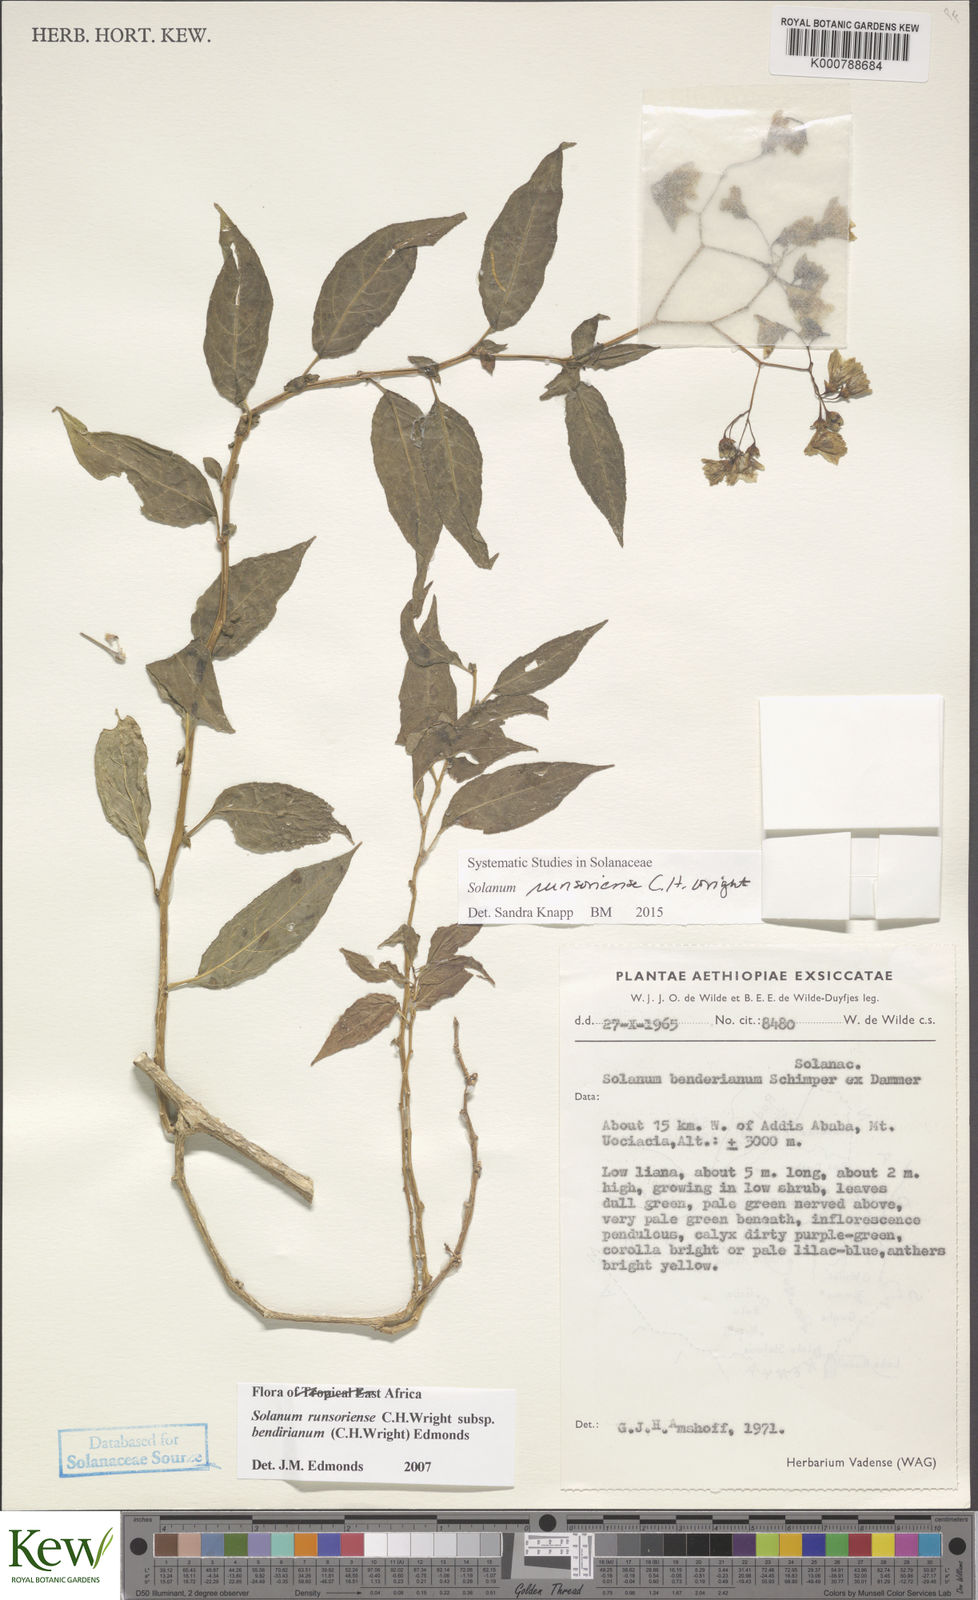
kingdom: Plantae
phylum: Tracheophyta
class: Magnoliopsida
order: Solanales
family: Solanaceae
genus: Solanum
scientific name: Solanum runsoriense
